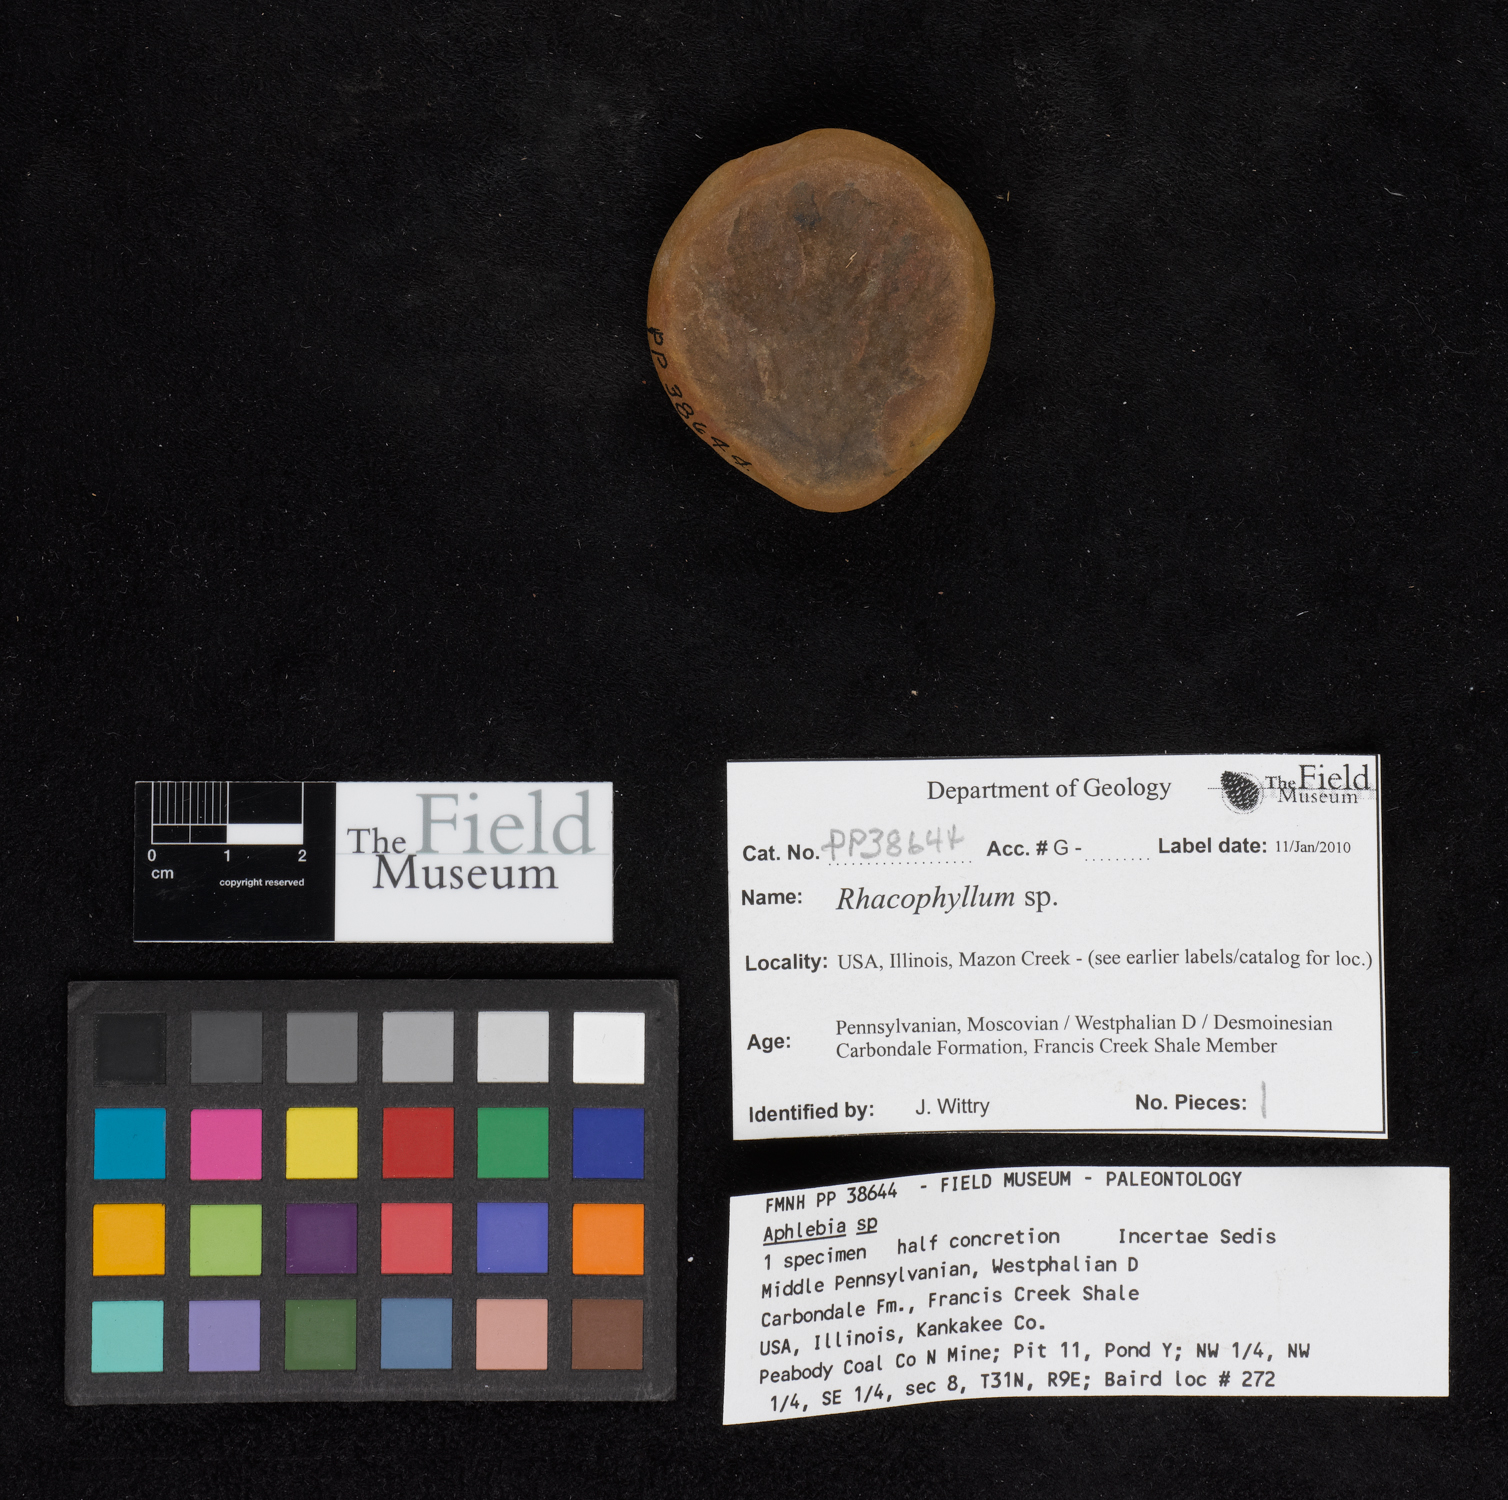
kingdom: Plantae
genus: Rhacophyllum
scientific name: Rhacophyllum
